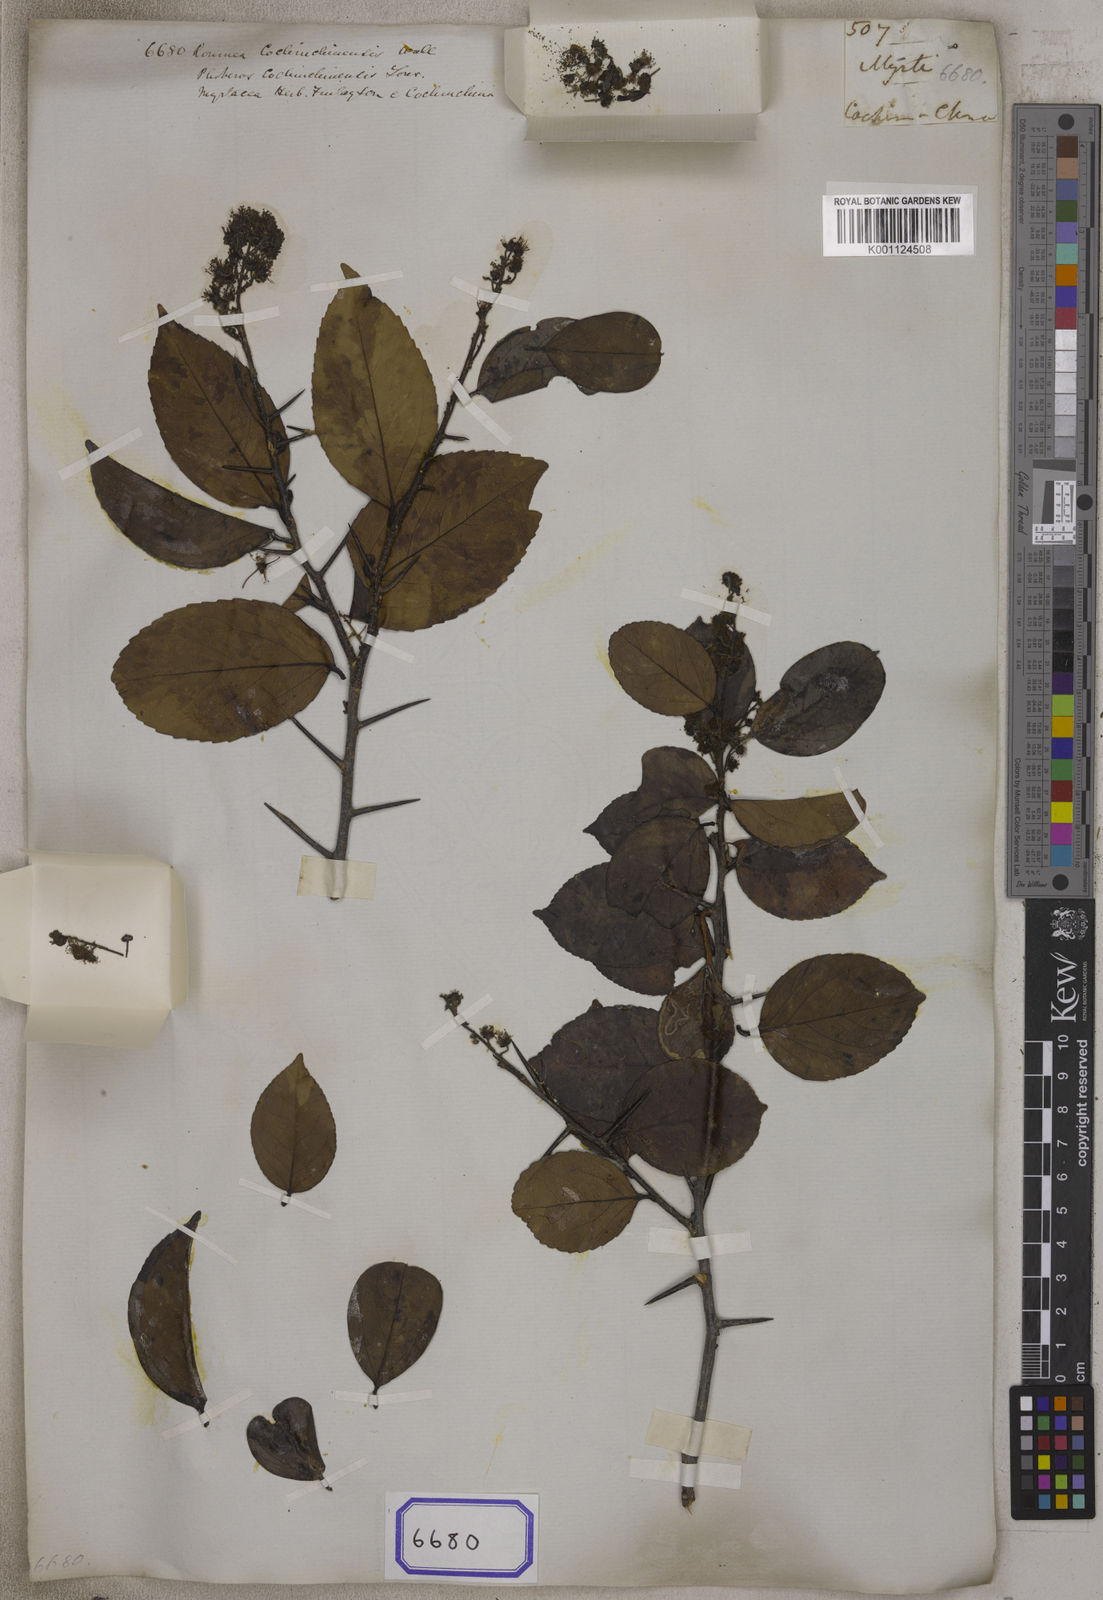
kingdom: Plantae
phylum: Tracheophyta
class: Magnoliopsida
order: Malpighiales
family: Salicaceae
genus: Scolopia
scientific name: Scolopia chinensis
